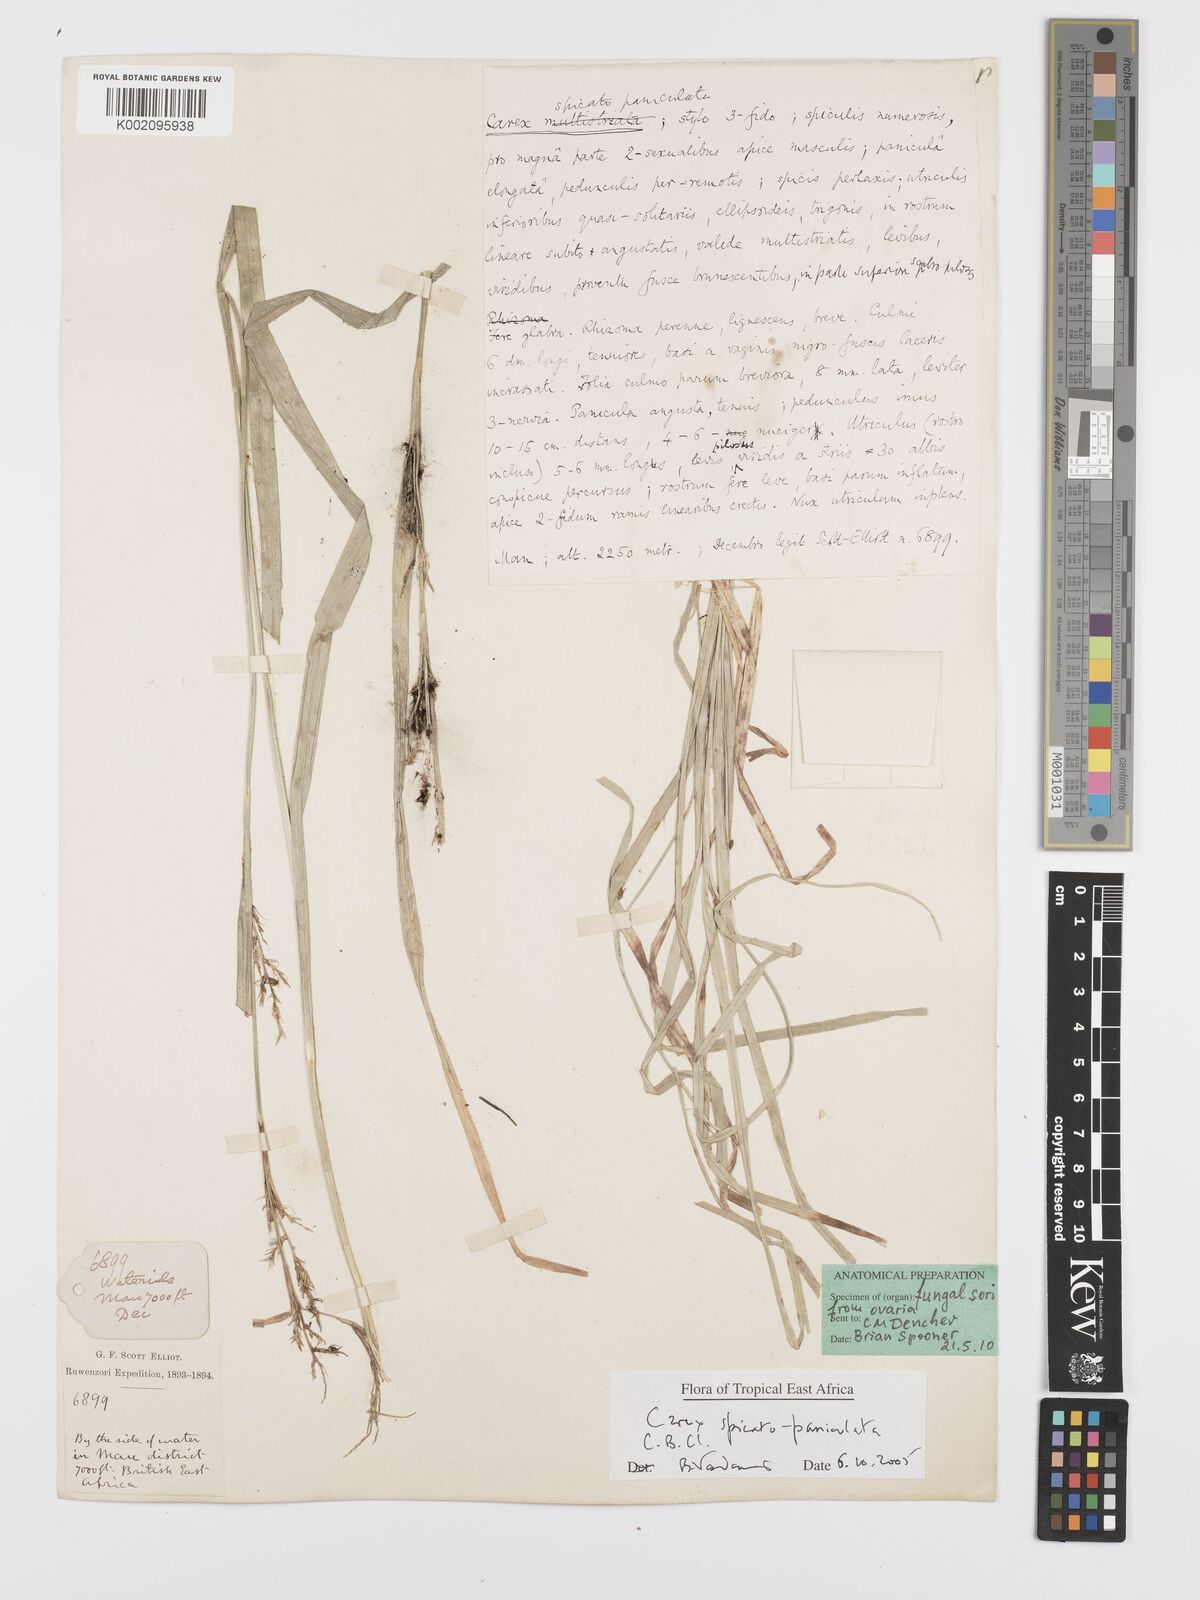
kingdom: Plantae
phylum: Tracheophyta
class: Liliopsida
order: Poales
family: Cyperaceae
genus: Carex
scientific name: Carex spicatopaniculata
